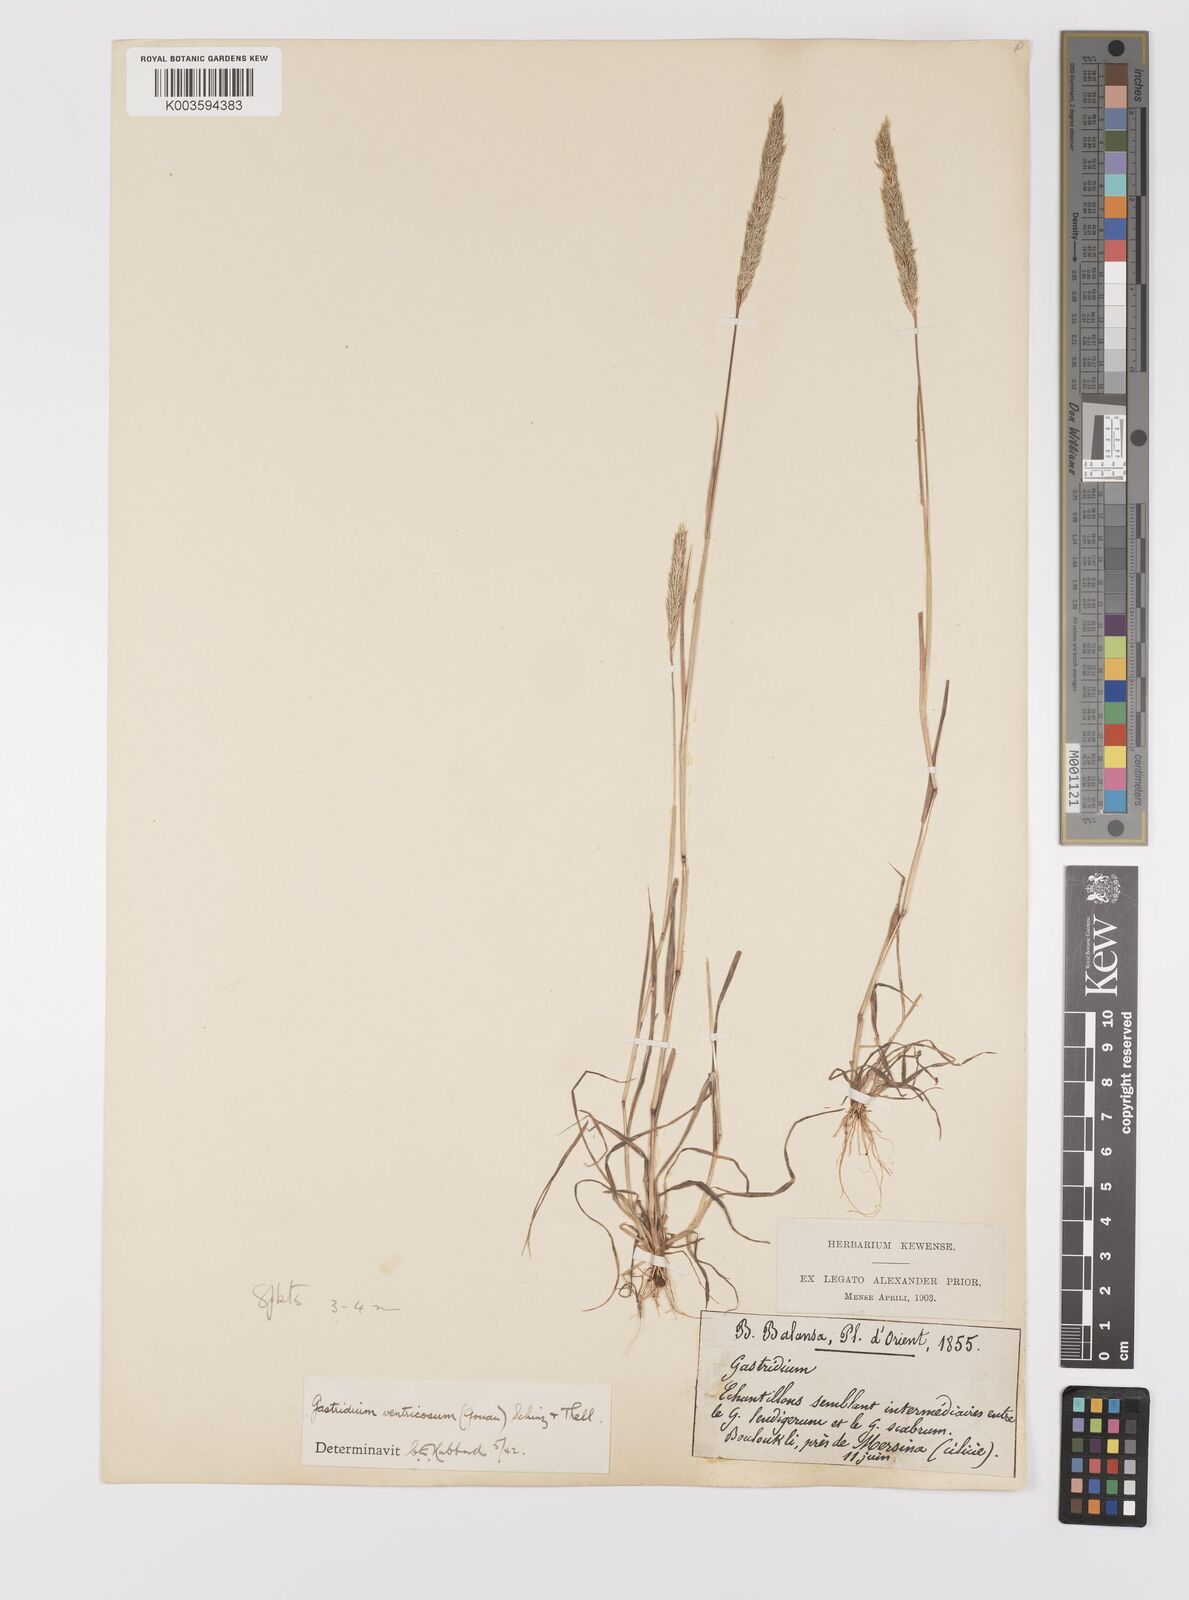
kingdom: Plantae
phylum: Tracheophyta
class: Liliopsida
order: Poales
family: Poaceae
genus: Gastridium
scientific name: Gastridium phleoides
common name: Nit grass
